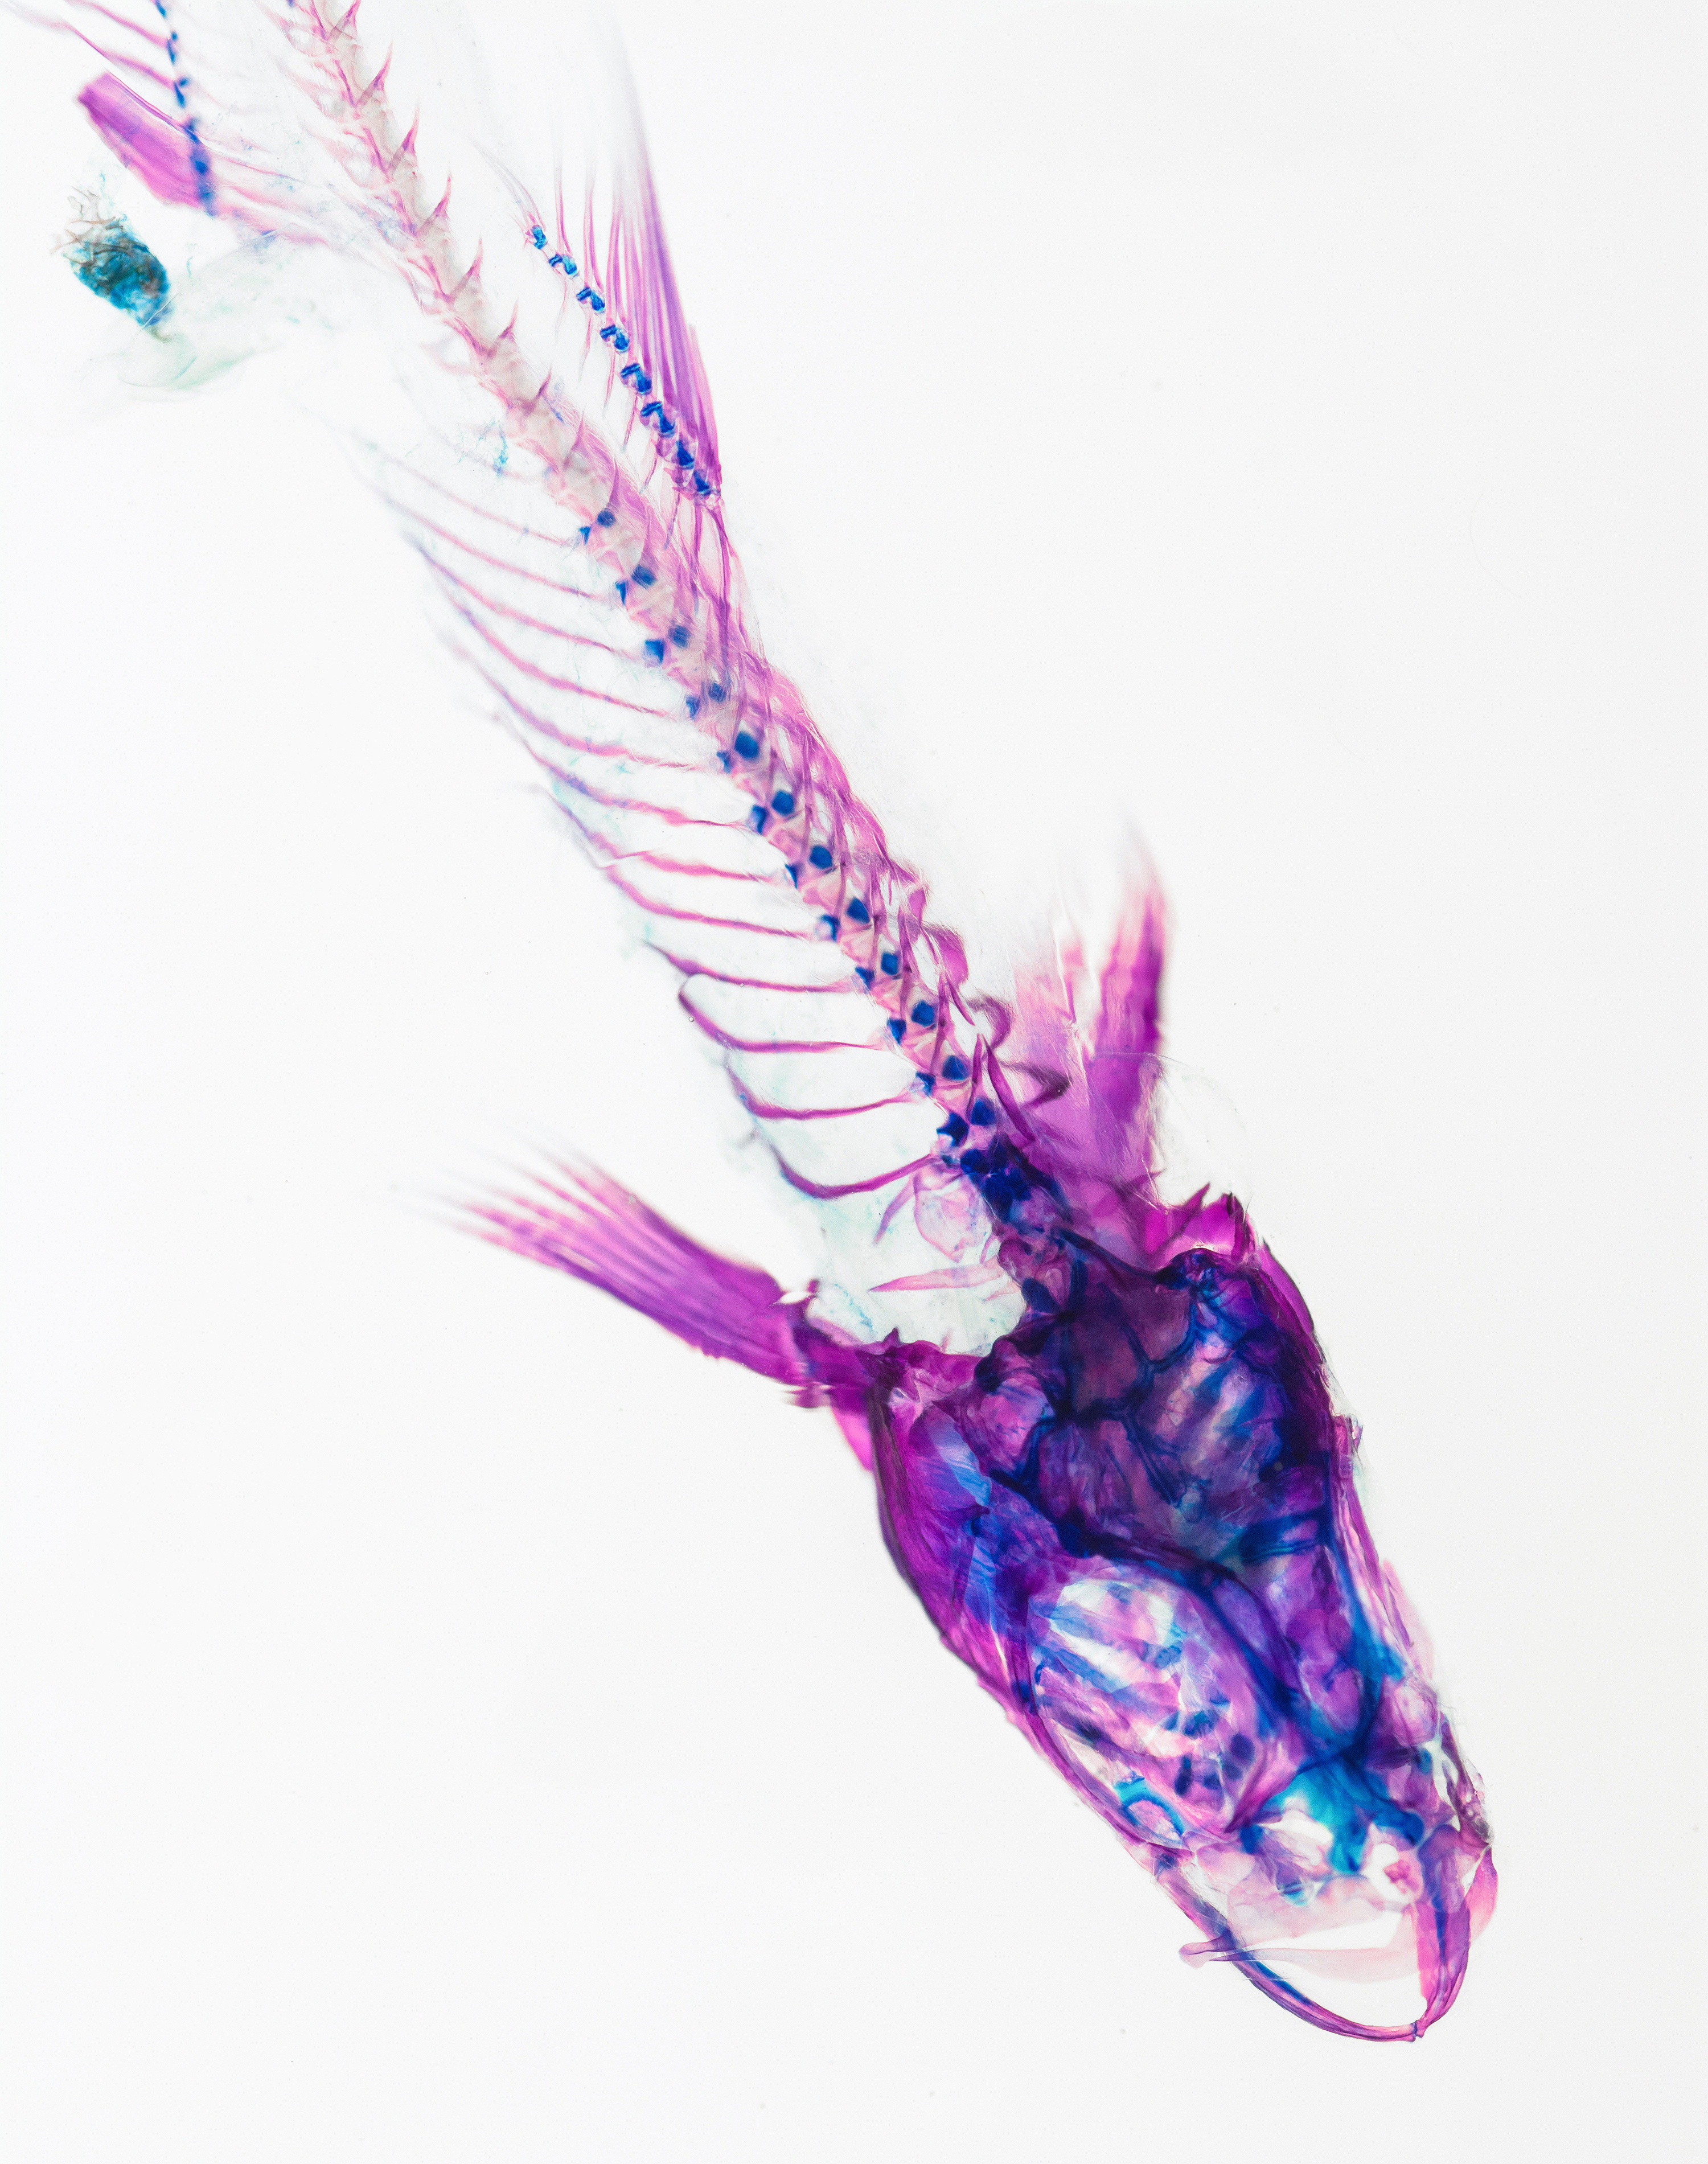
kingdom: Animalia
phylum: Chordata
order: Cypriniformes
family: Cyprinidae
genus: Notropis
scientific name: Notropis amabilis
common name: Texas shiner
